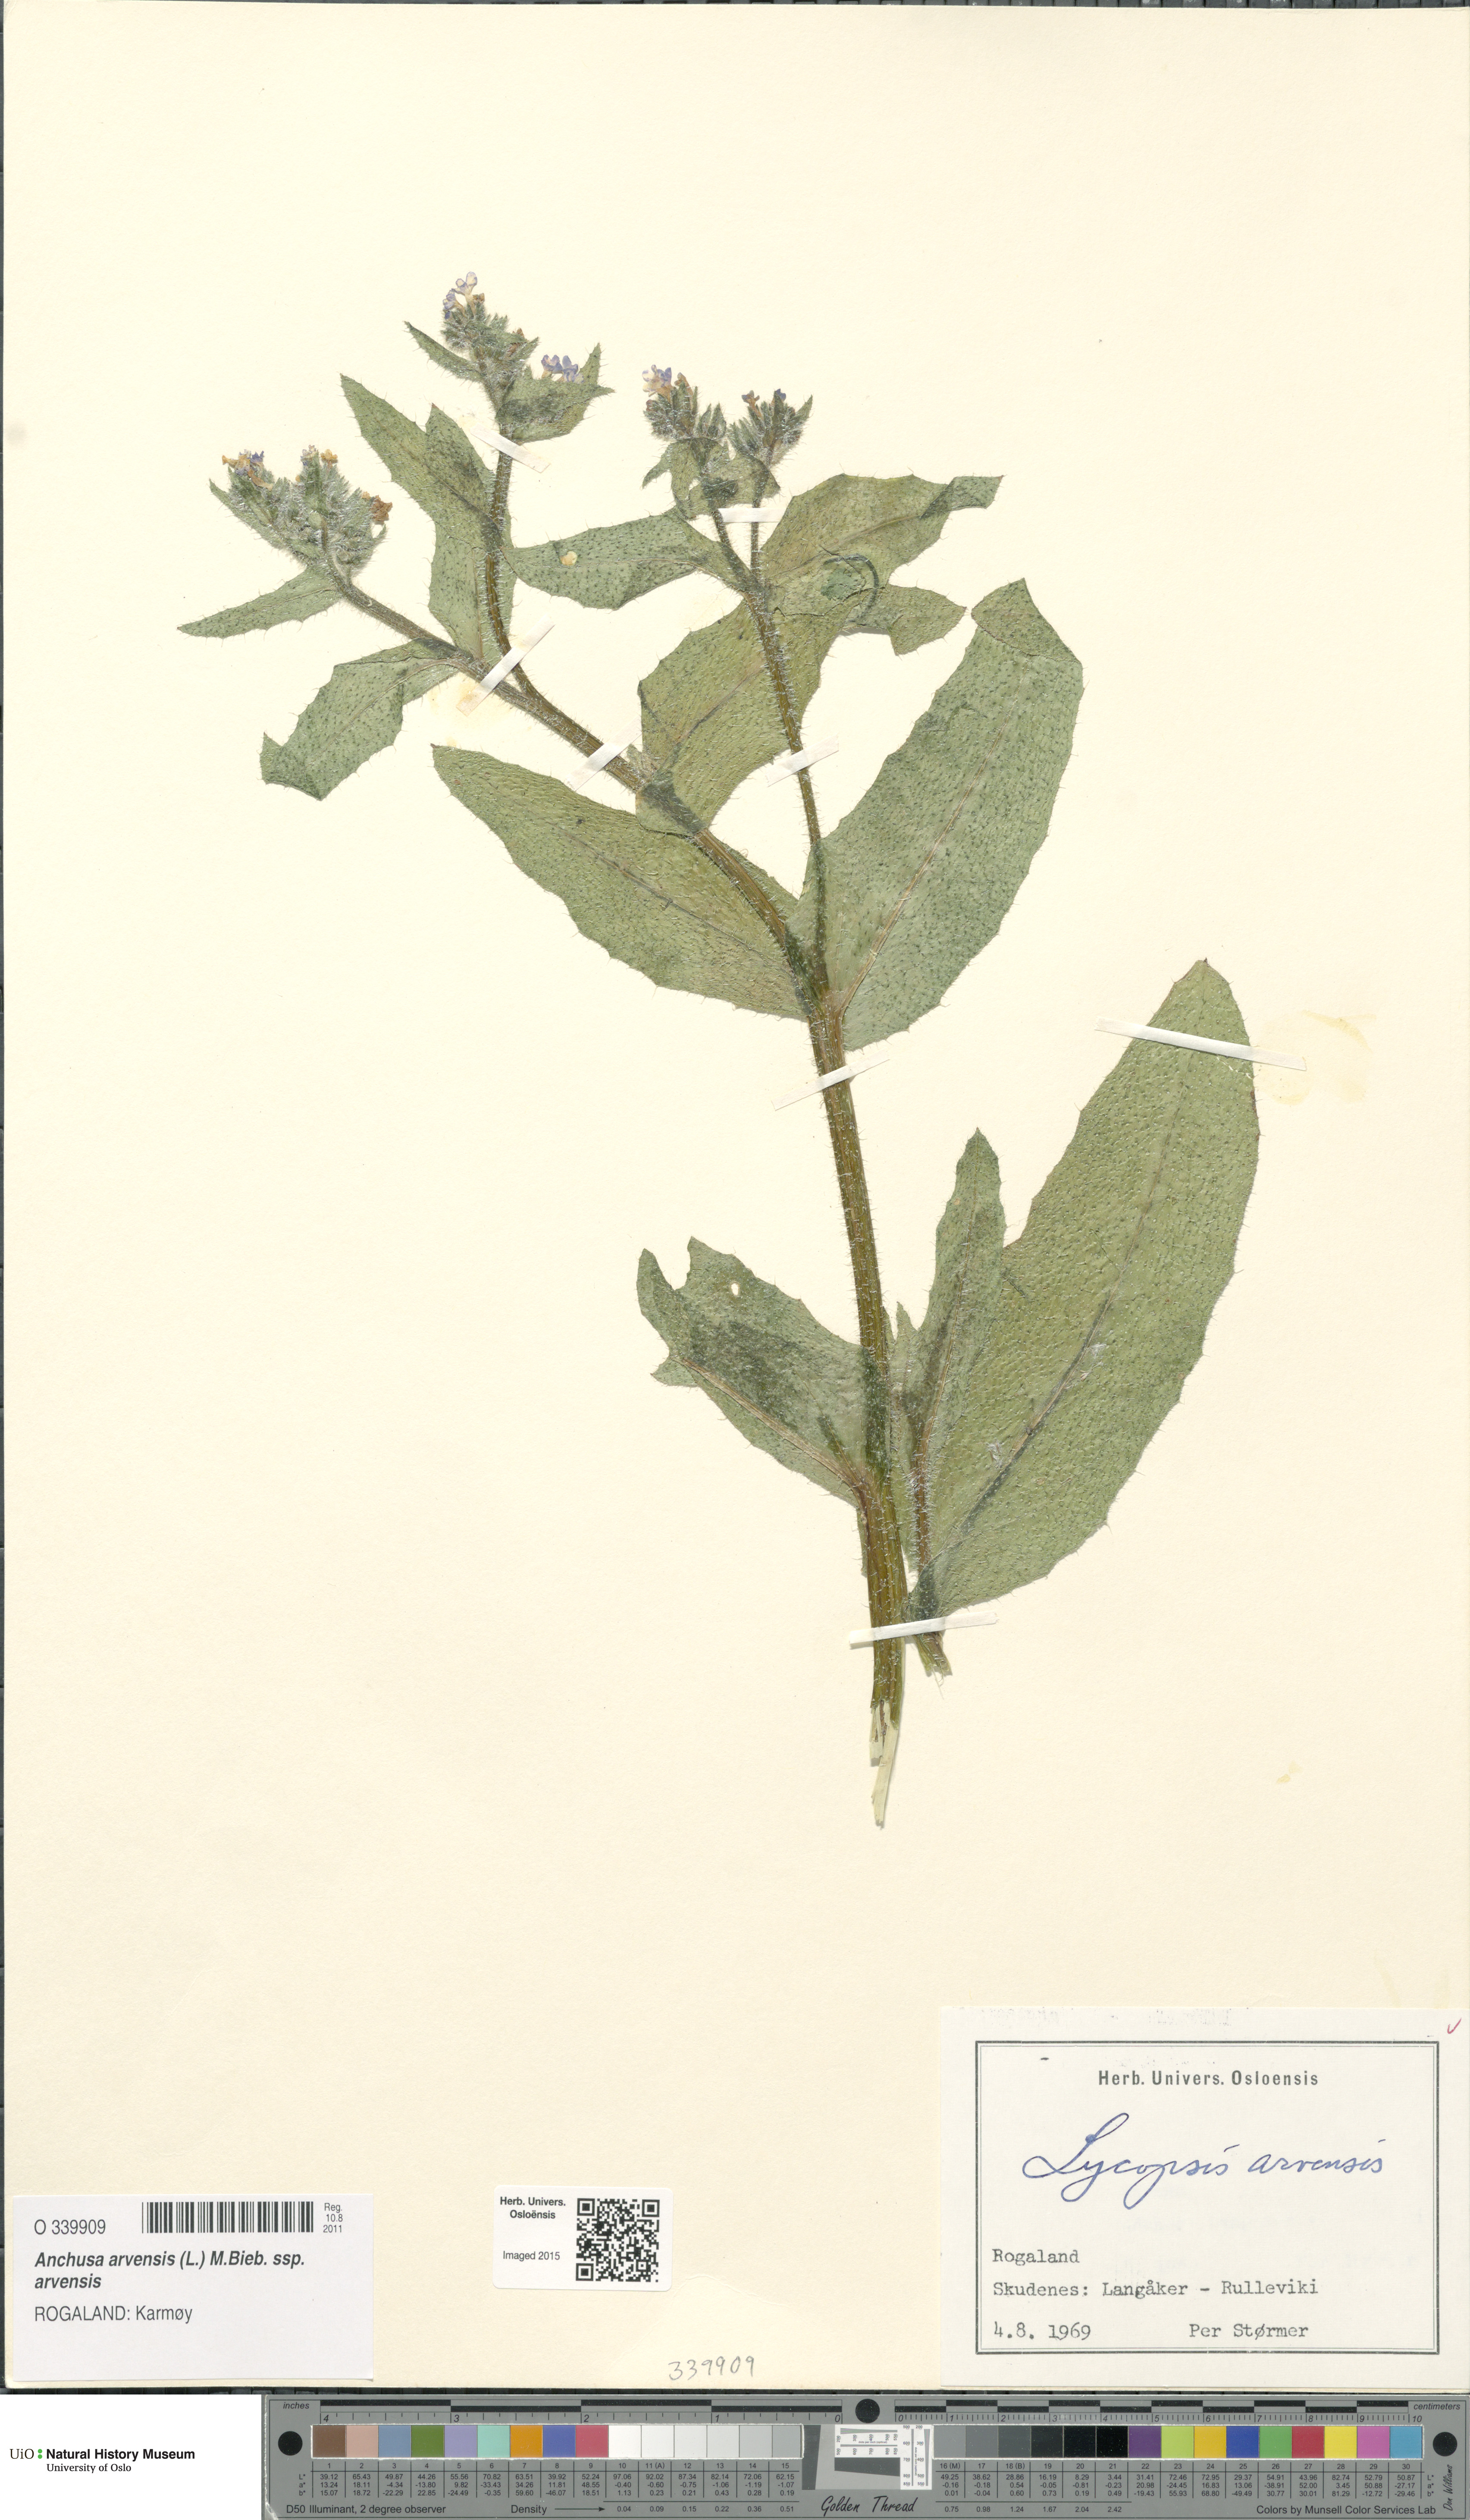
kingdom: Plantae
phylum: Tracheophyta
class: Magnoliopsida
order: Boraginales
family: Boraginaceae
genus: Lycopsis
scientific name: Lycopsis arvensis
